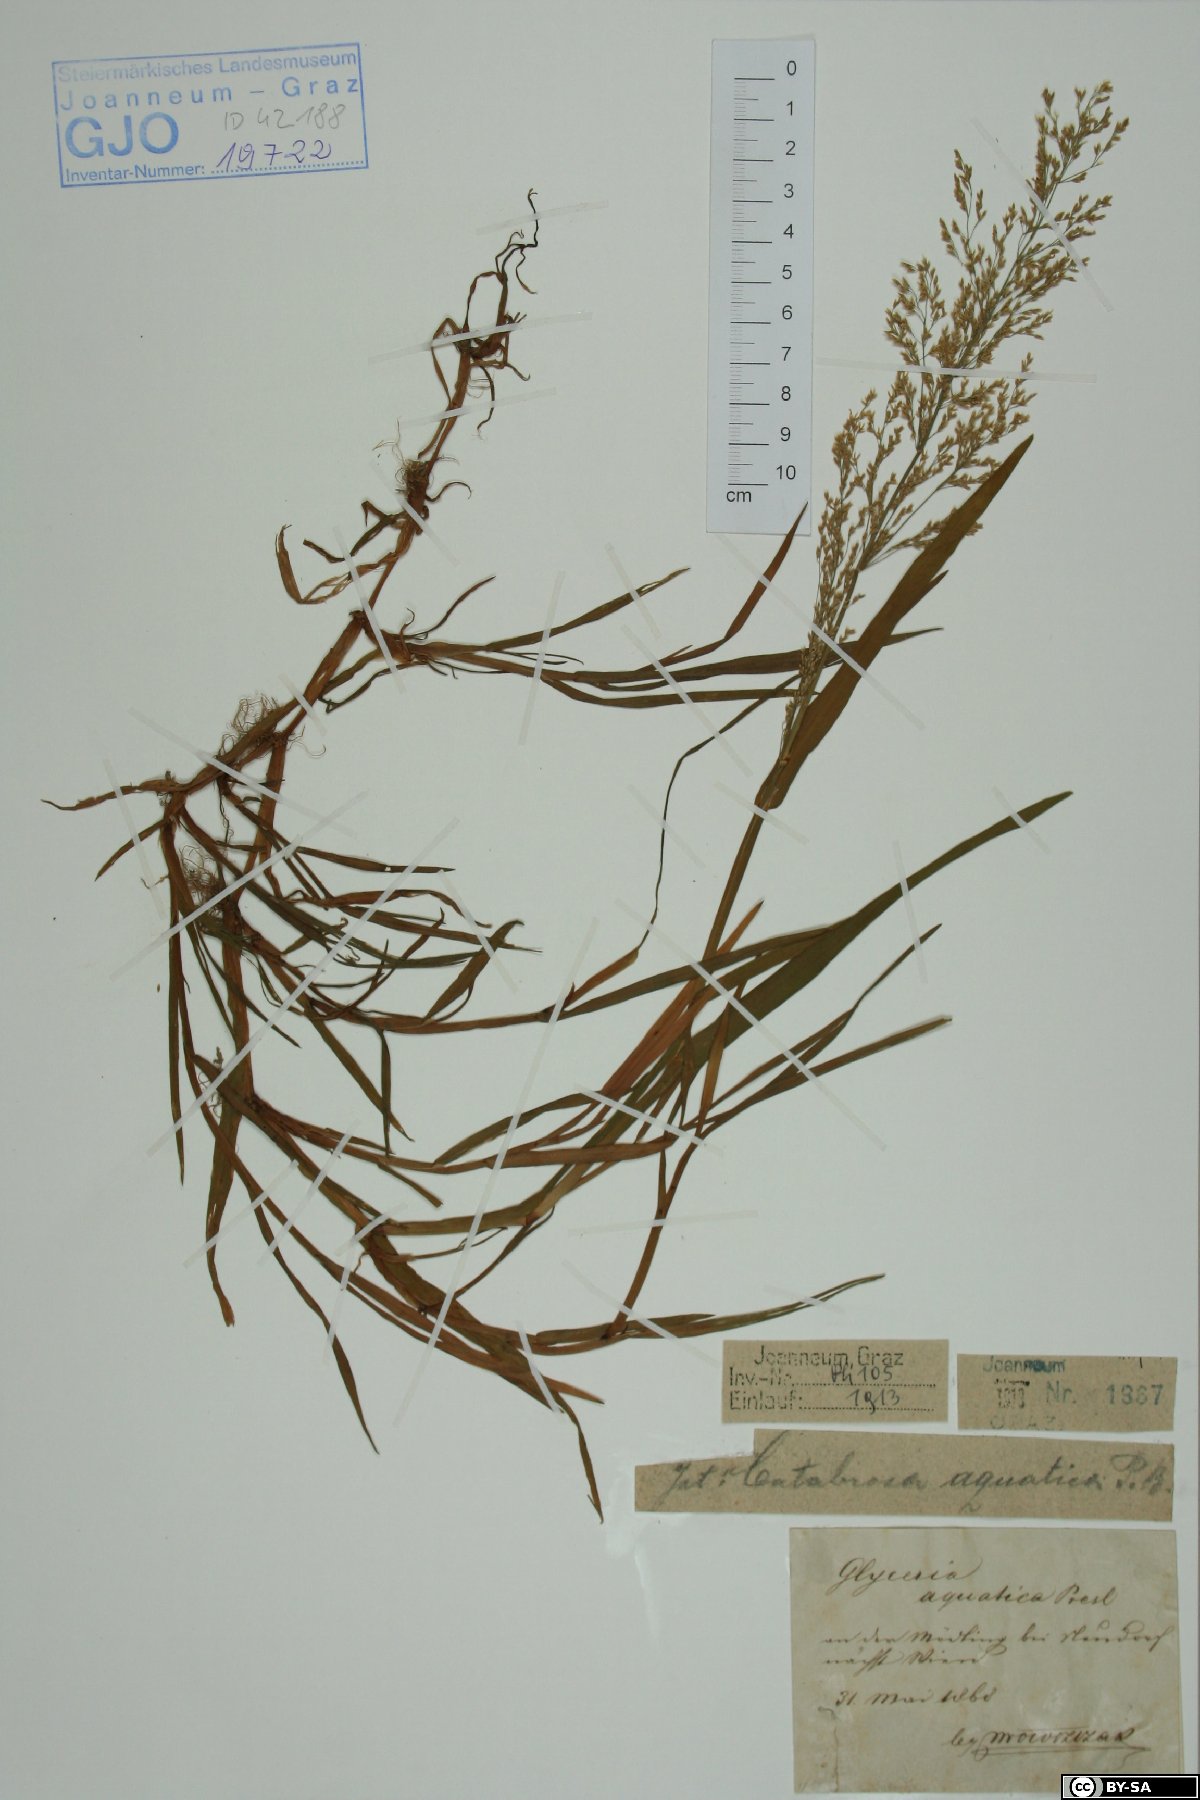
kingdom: Plantae
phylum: Tracheophyta
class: Liliopsida
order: Poales
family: Poaceae
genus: Catabrosa
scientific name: Catabrosa aquatica
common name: Whorl-grass
